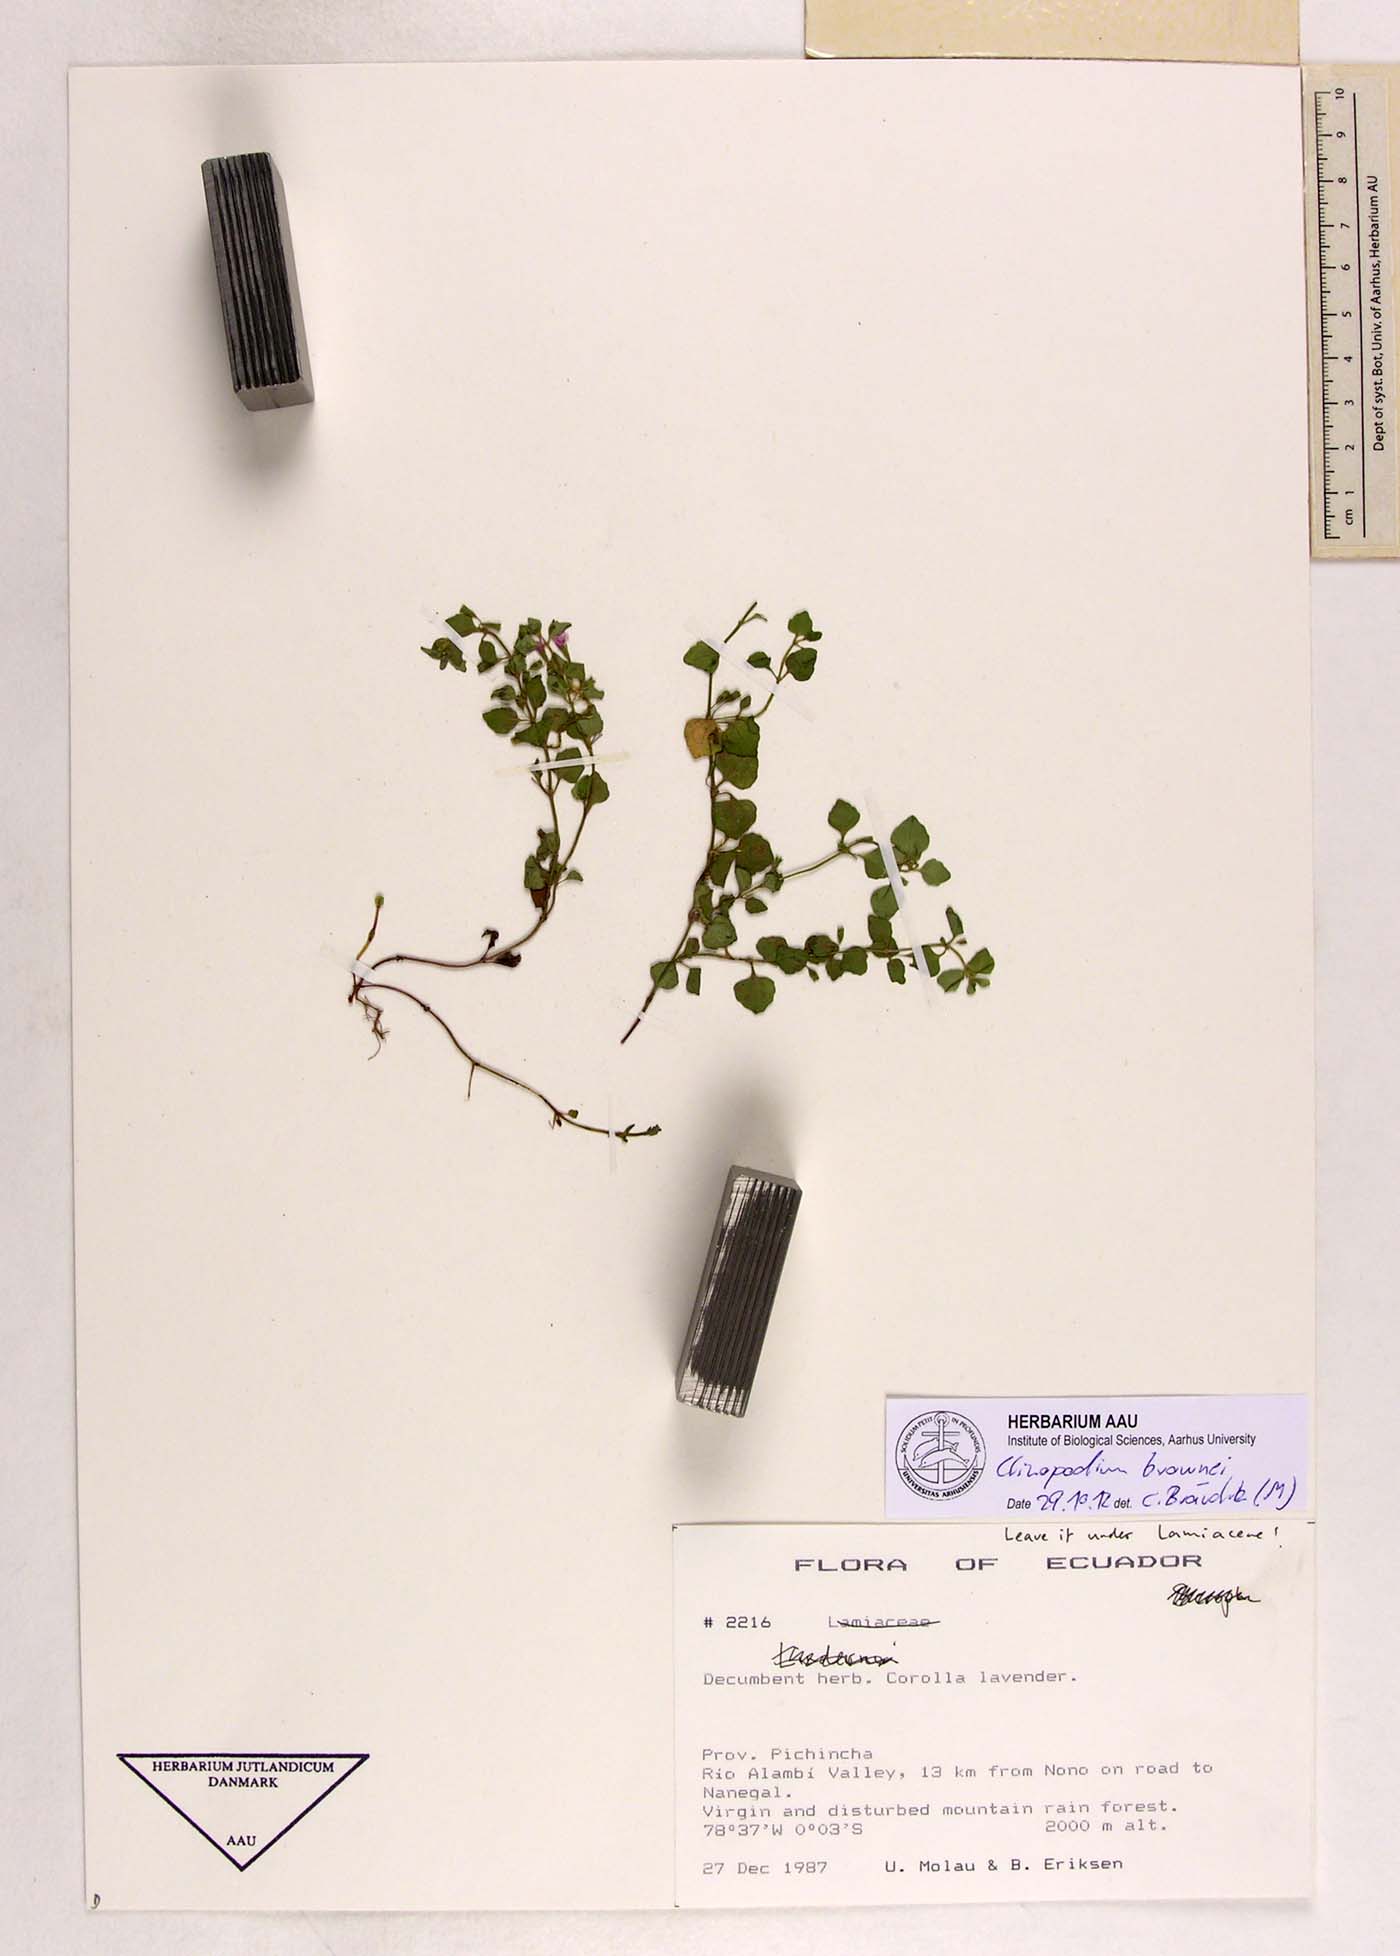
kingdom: Plantae
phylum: Tracheophyta
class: Magnoliopsida
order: Lamiales
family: Lamiaceae
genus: Clinopodium
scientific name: Clinopodium brownei
